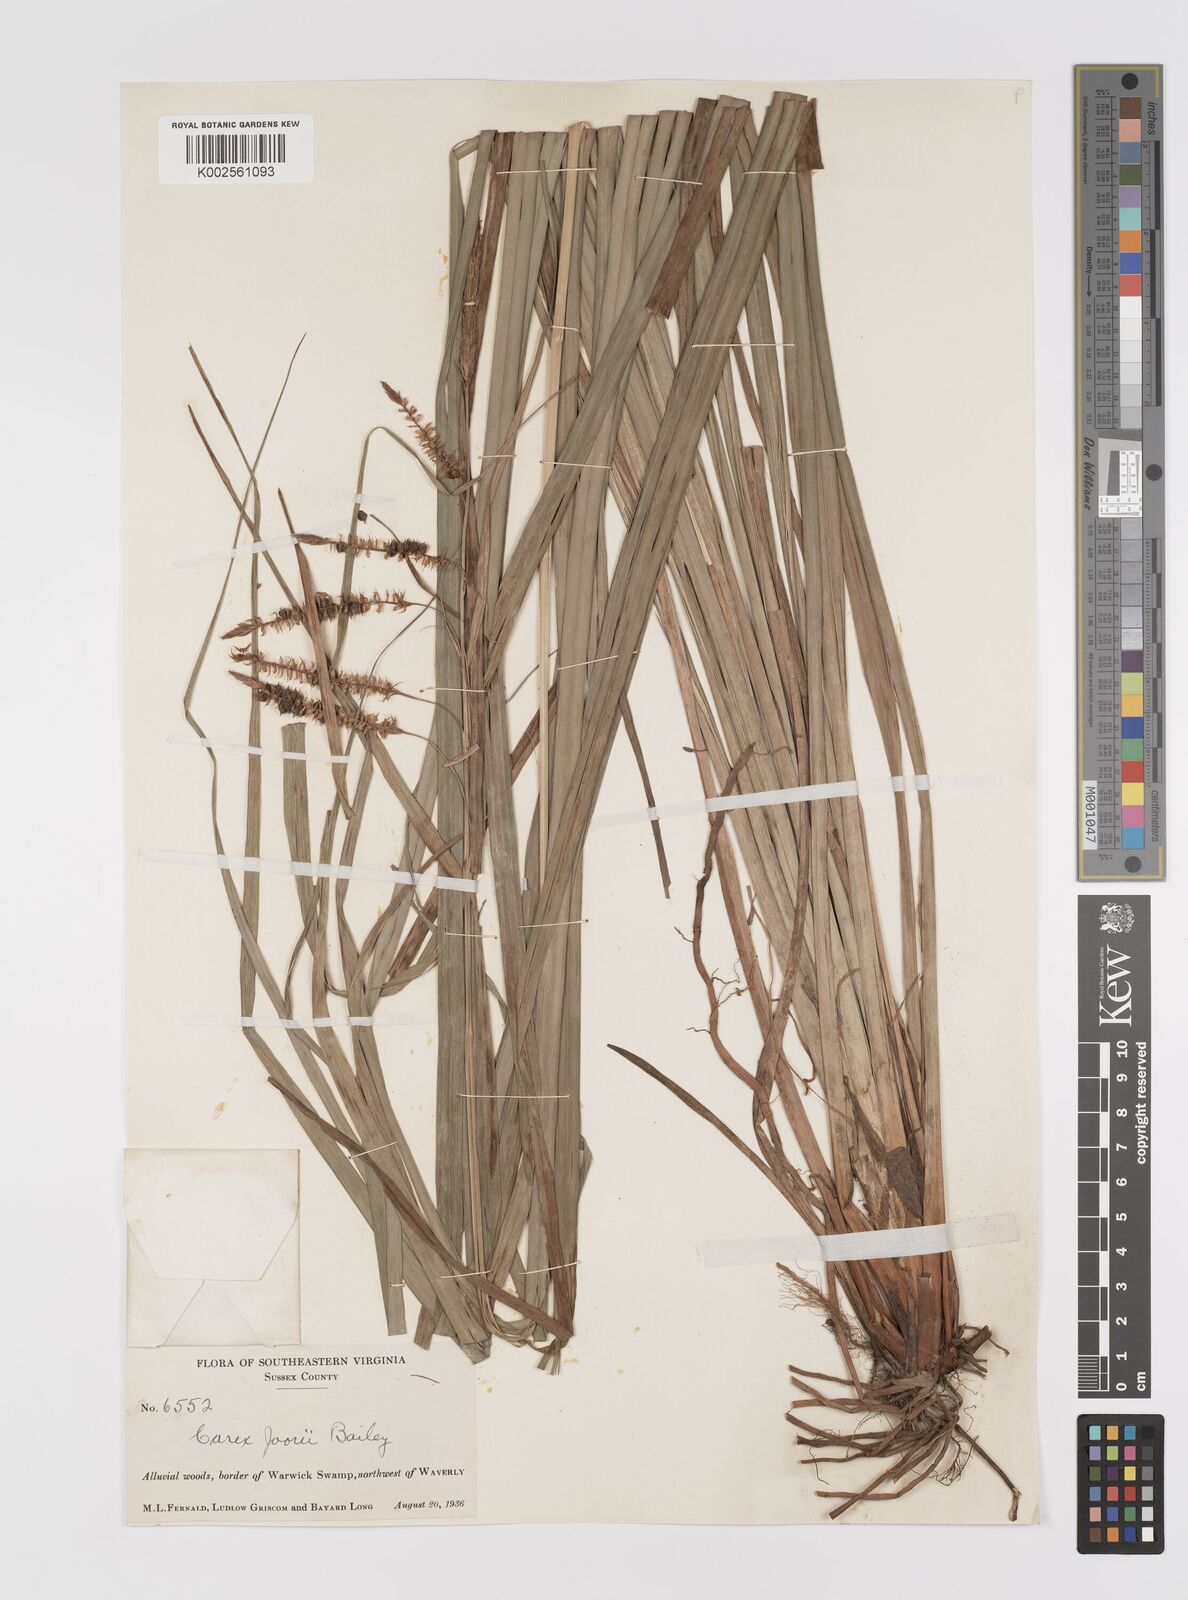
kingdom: Plantae
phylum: Tracheophyta
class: Liliopsida
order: Poales
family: Cyperaceae
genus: Carex
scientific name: Carex joorii
